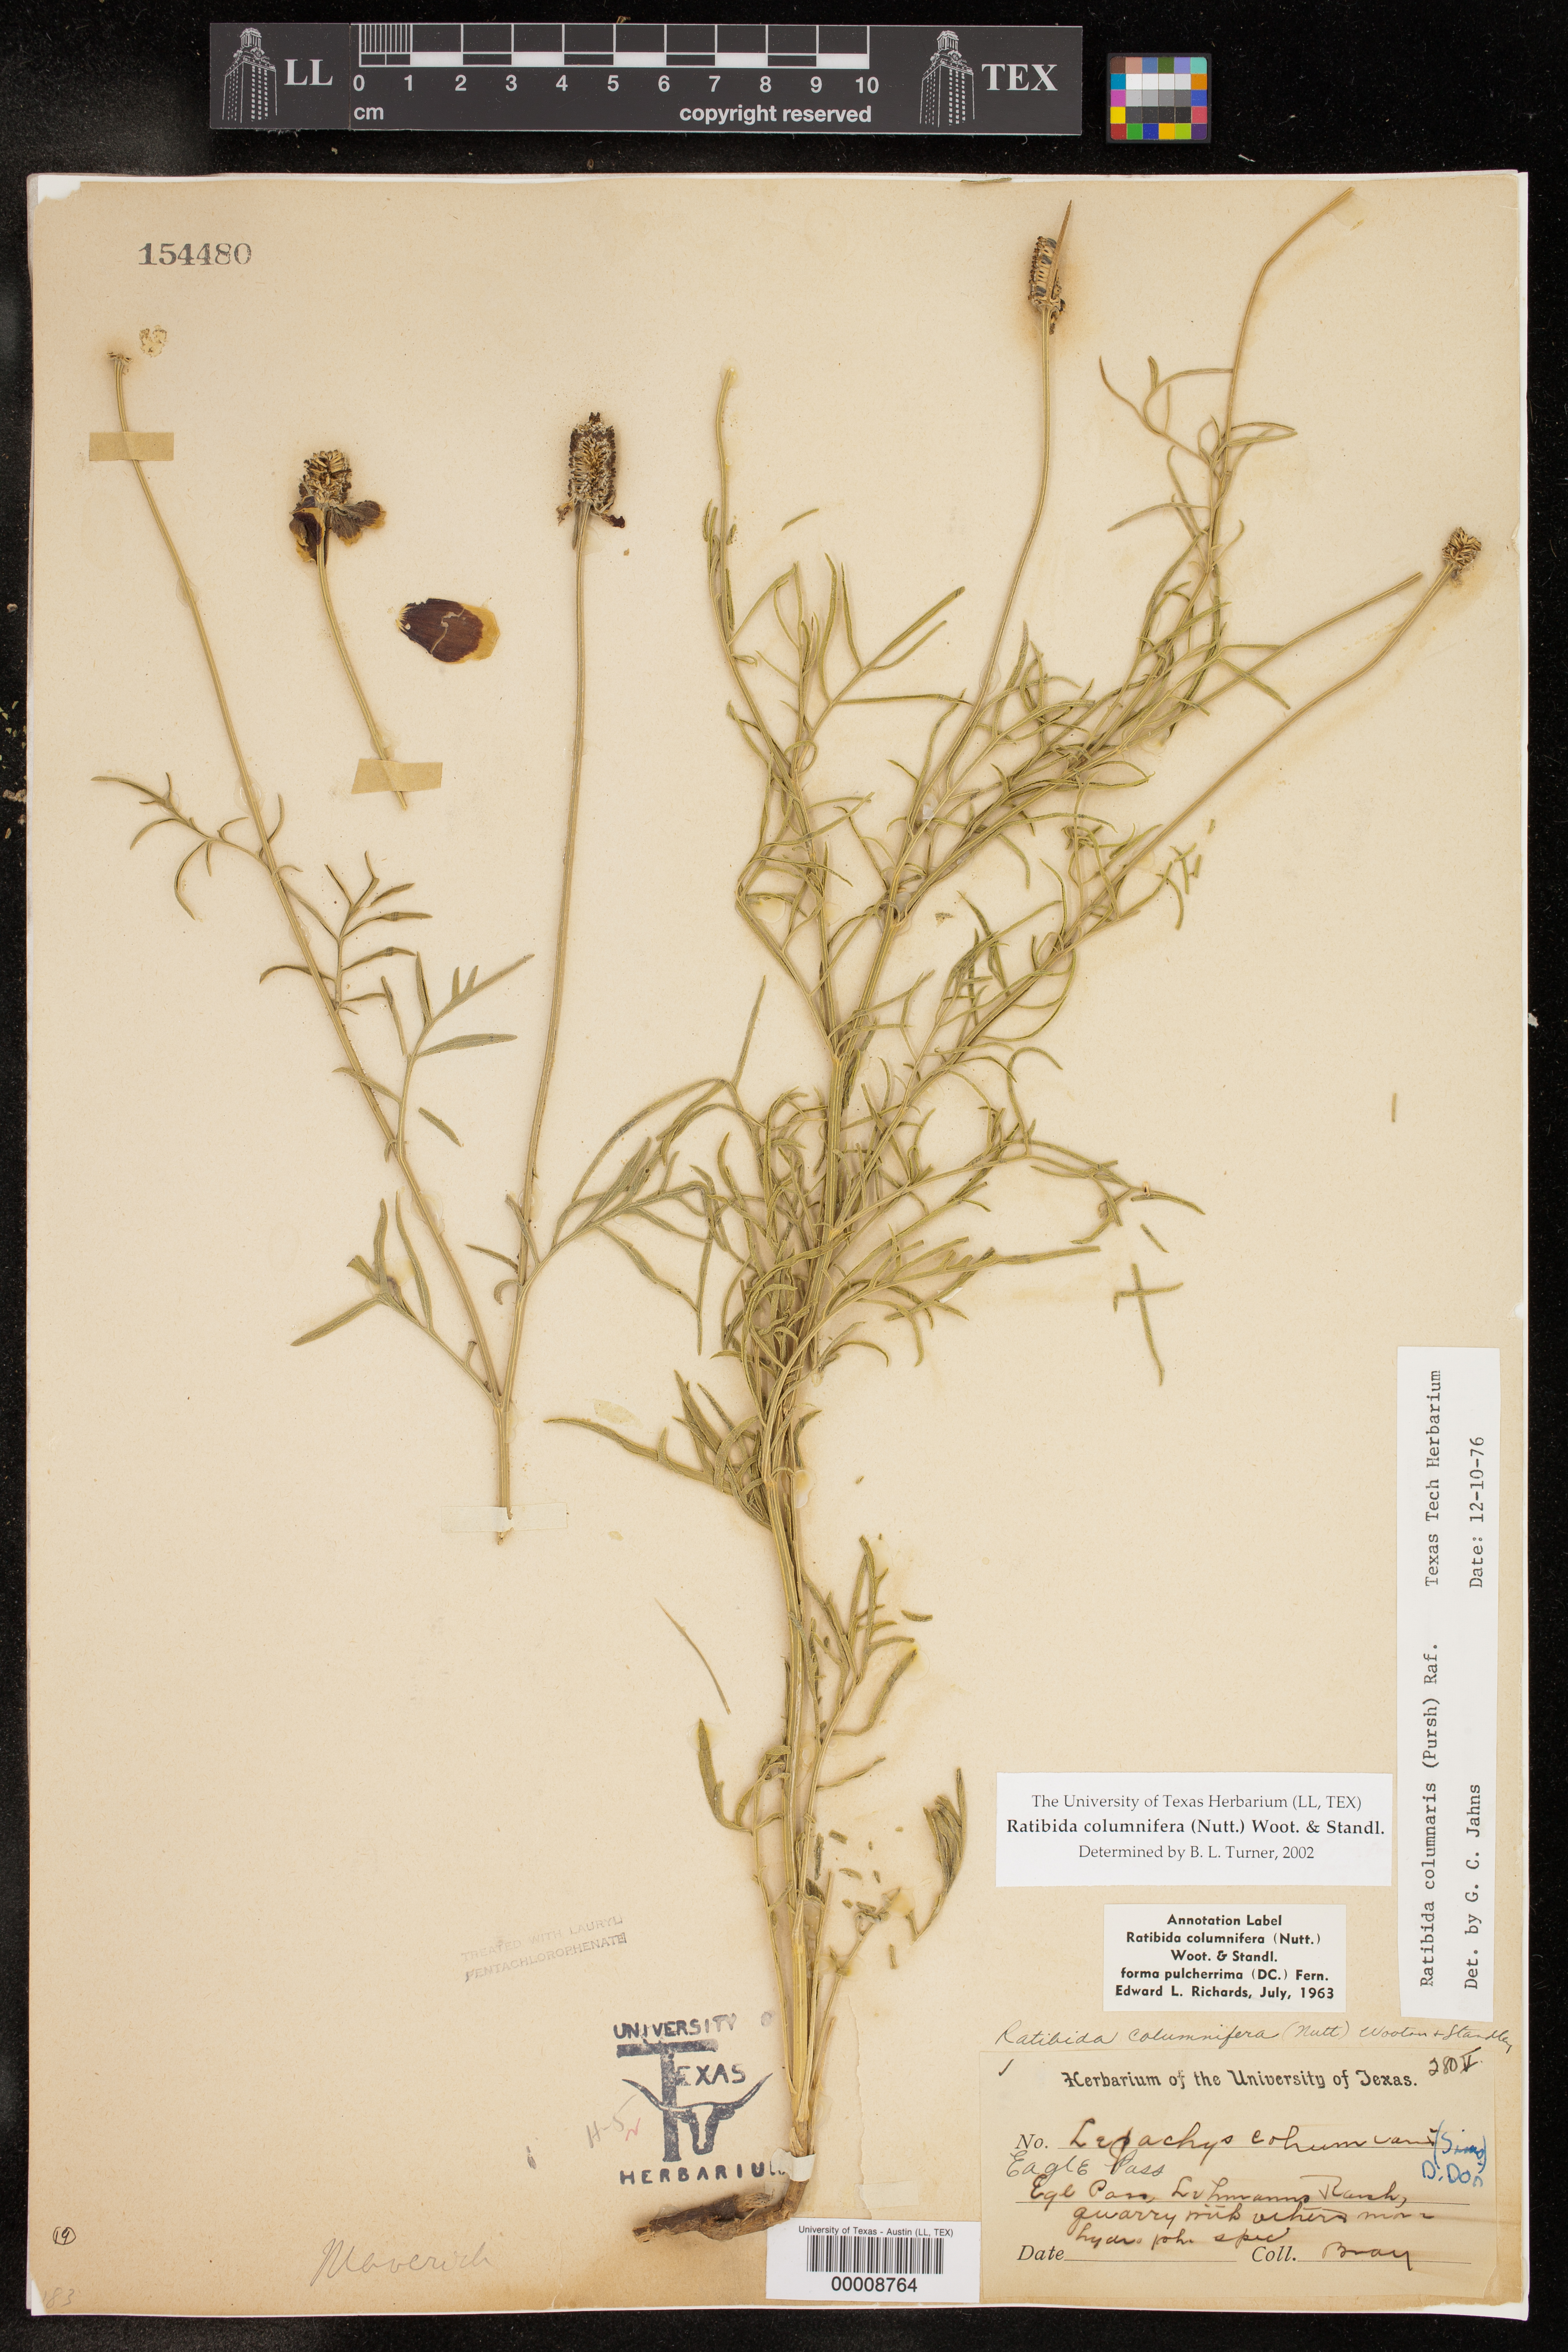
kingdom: Plantae
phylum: Tracheophyta
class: Magnoliopsida
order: Asterales
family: Asteraceae
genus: Ratibida
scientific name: Ratibida columnifera
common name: Prairie coneflower
